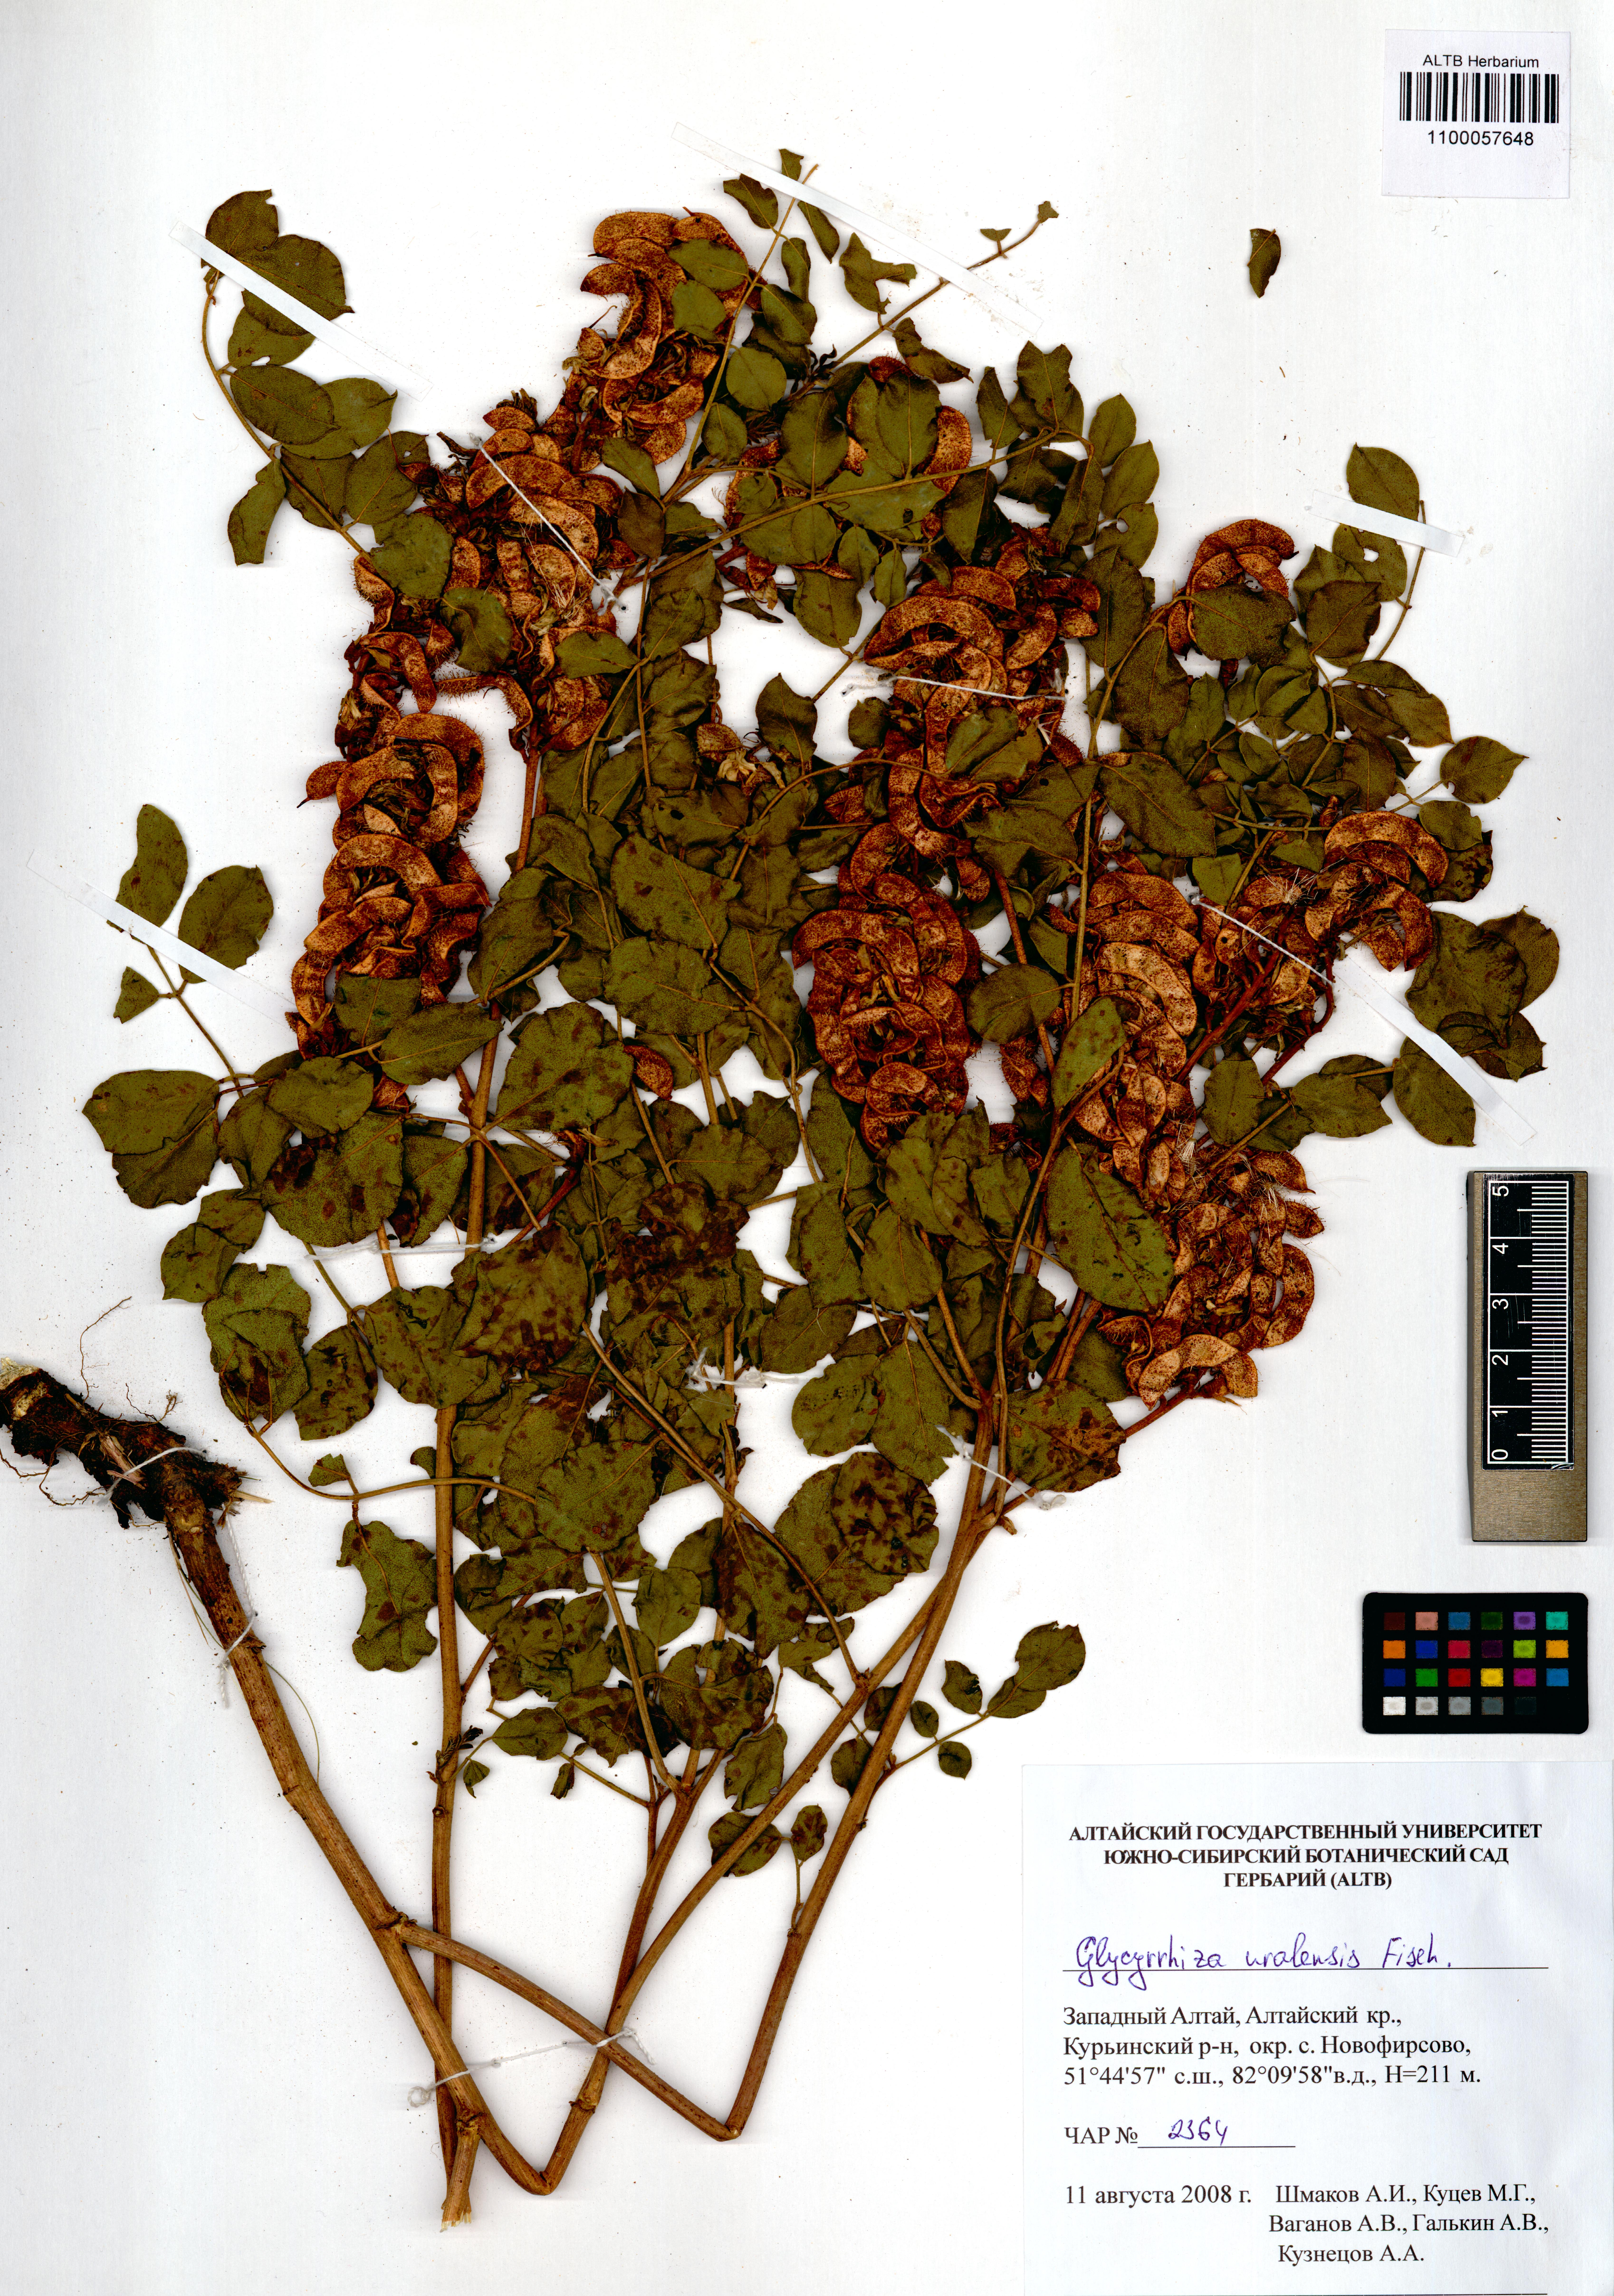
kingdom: Plantae
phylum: Tracheophyta
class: Magnoliopsida
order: Fabales
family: Fabaceae
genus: Glycyrrhiza
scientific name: Glycyrrhiza uralensis
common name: Chinese licorice
